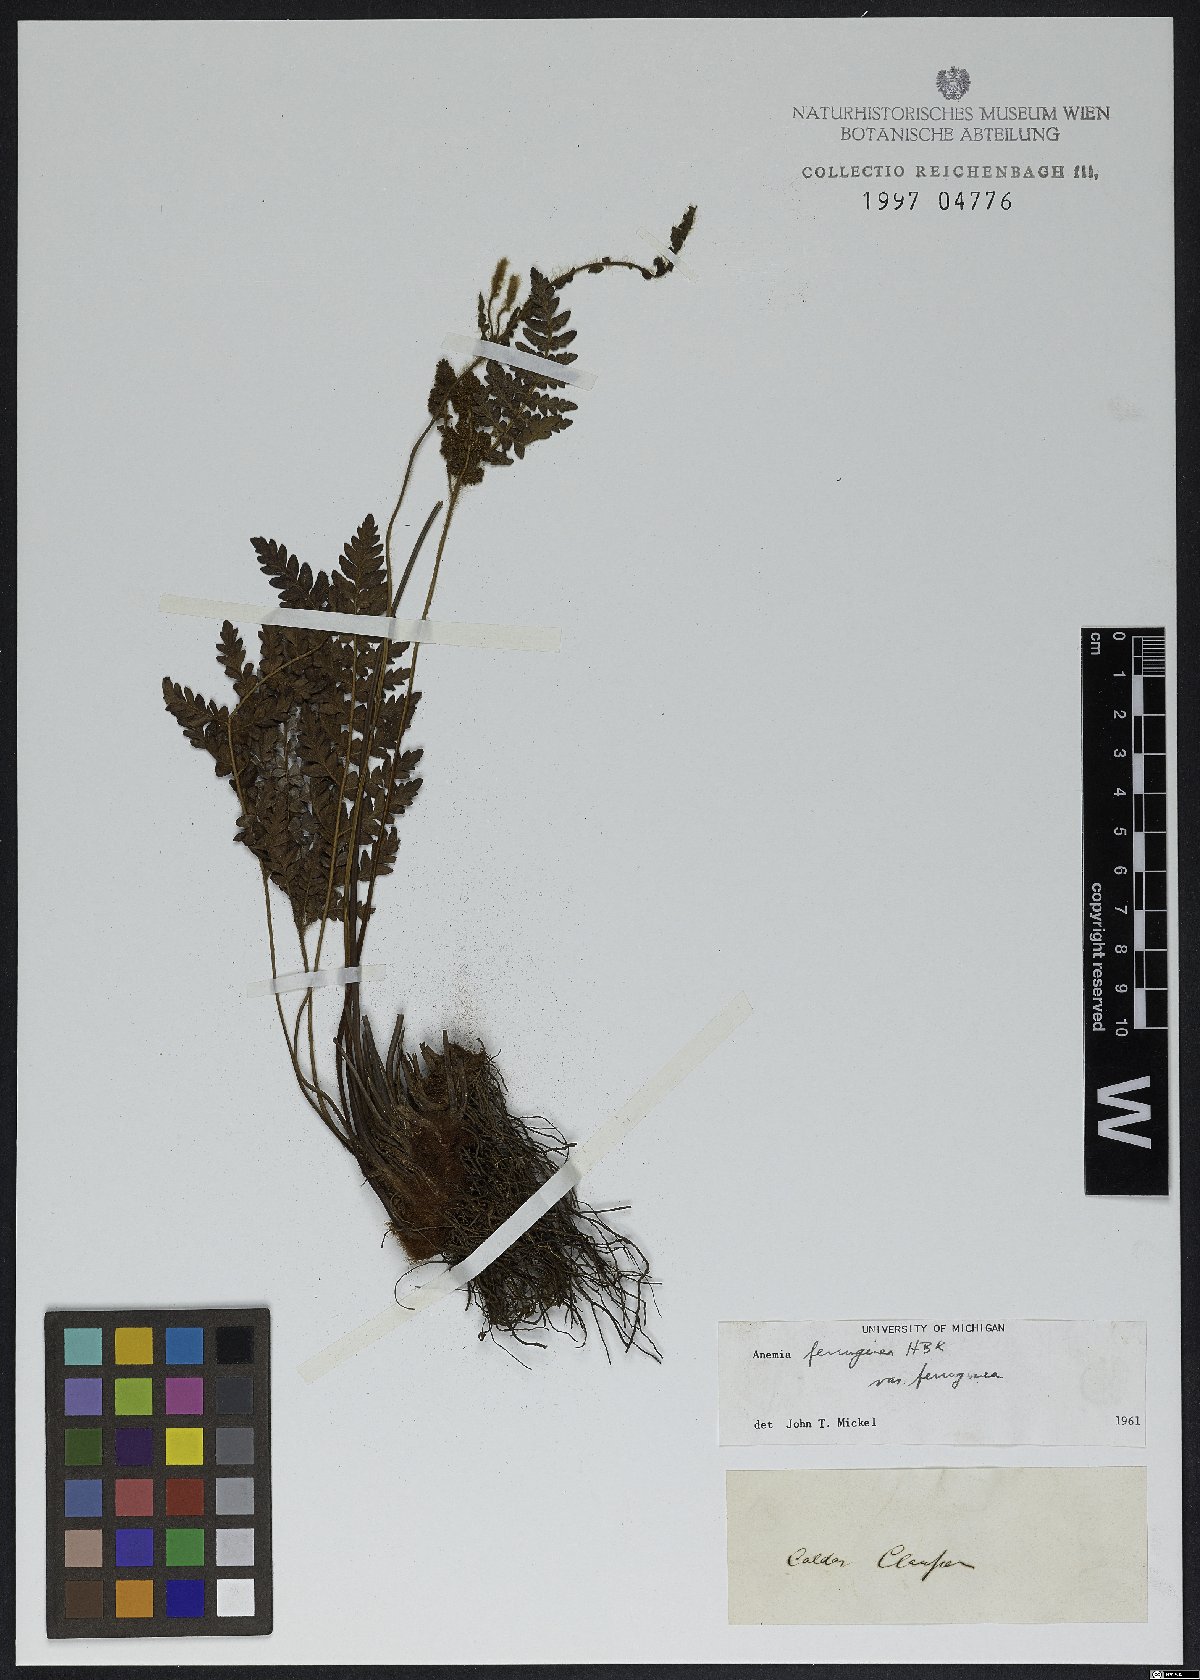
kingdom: Plantae
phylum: Tracheophyta
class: Polypodiopsida
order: Schizaeales
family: Anemiaceae
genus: Anemia
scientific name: Anemia ferruginea
